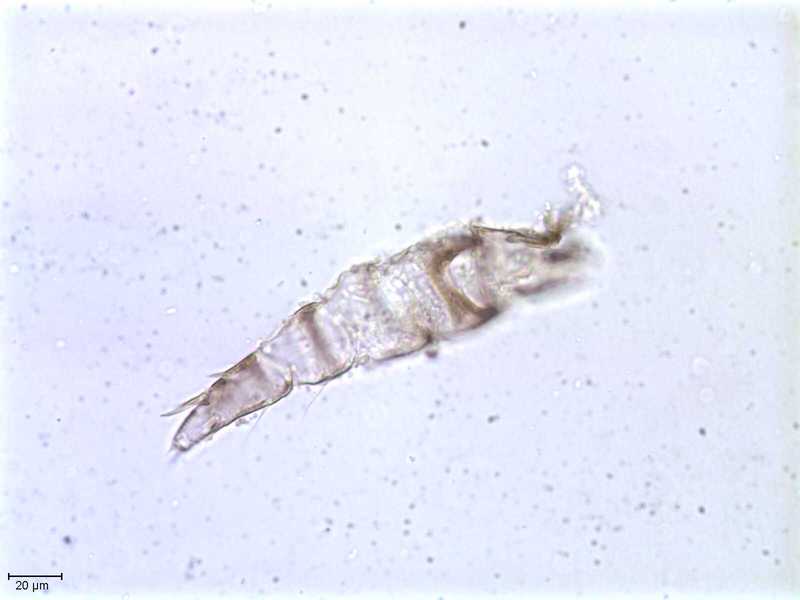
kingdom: Animalia
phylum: Arthropoda
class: Arachnida
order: Mesostigmata
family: Halarachnidae
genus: Orthohalarachne
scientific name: Orthohalarachne letalis
